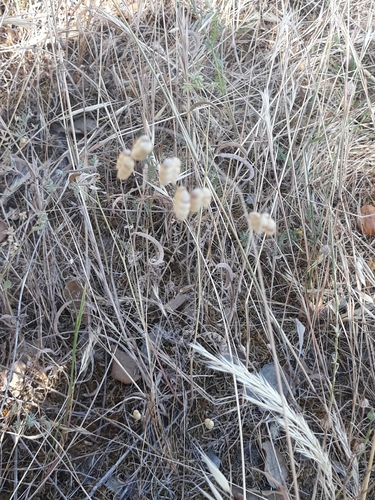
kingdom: Plantae
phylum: Tracheophyta
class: Liliopsida
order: Poales
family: Poaceae
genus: Briza
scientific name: Briza maxima
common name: Big quakinggrass
